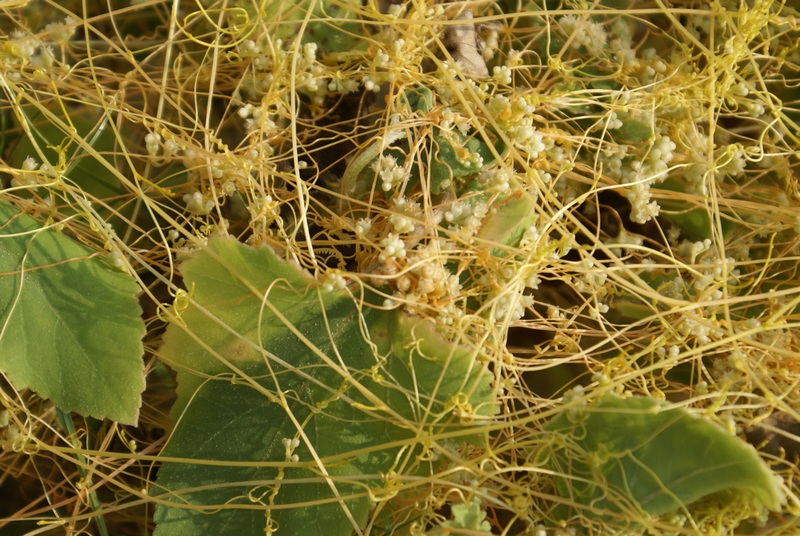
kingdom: Plantae
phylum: Tracheophyta
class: Magnoliopsida
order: Solanales
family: Convolvulaceae
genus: Cuscuta
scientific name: Cuscuta
